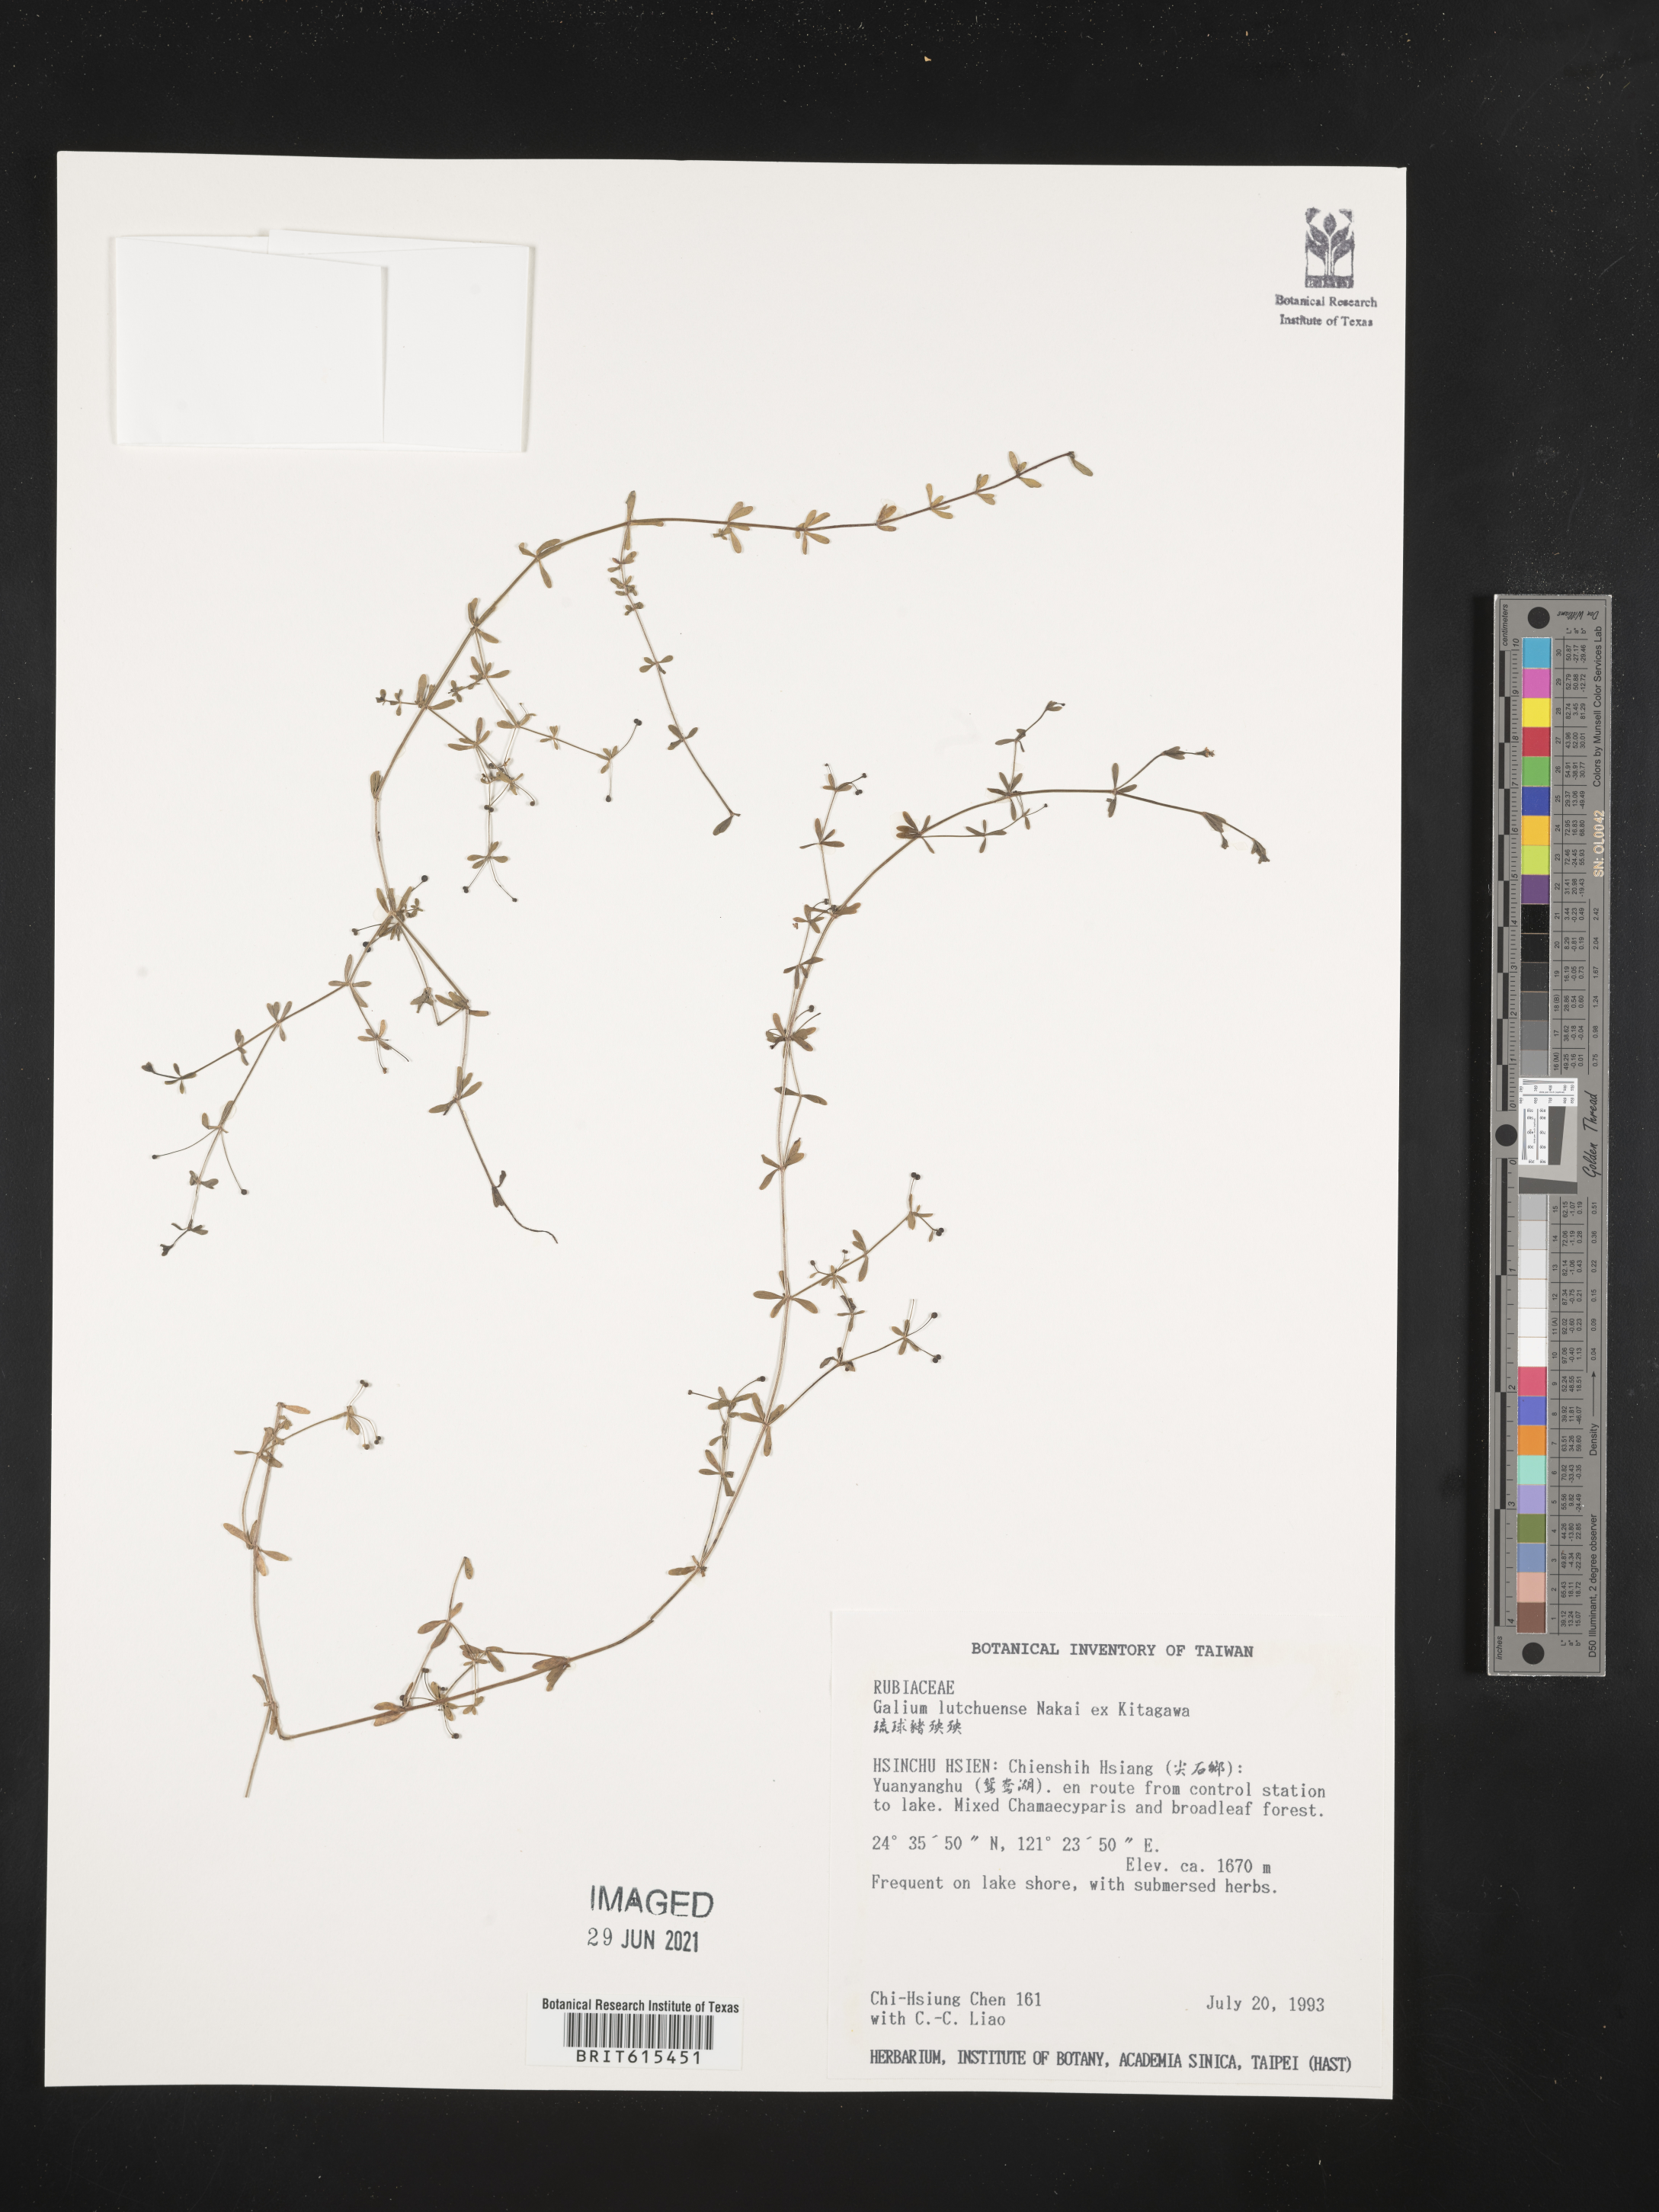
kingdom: Plantae
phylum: Tracheophyta
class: Magnoliopsida
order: Gentianales
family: Rubiaceae
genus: Galium
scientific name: Galium bungei
